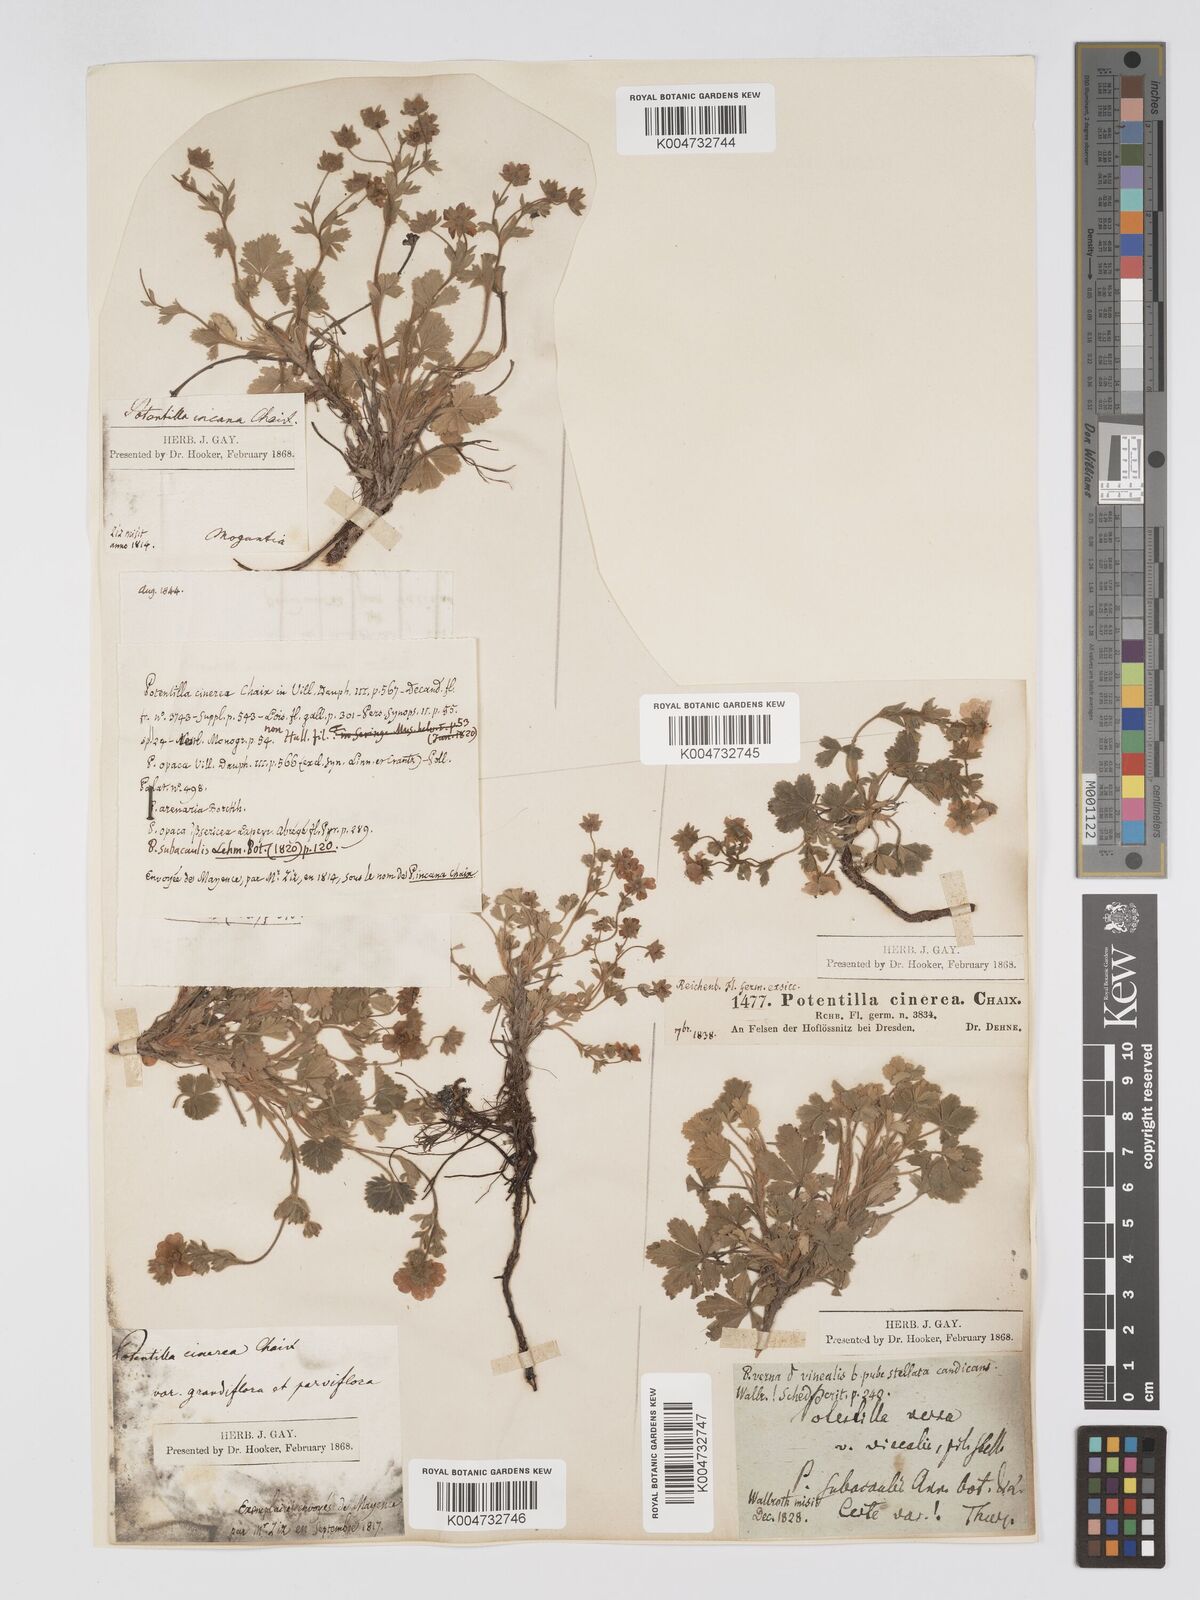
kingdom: Plantae
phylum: Tracheophyta
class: Magnoliopsida
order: Rosales
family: Rosaceae
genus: Potentilla
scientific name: Potentilla
